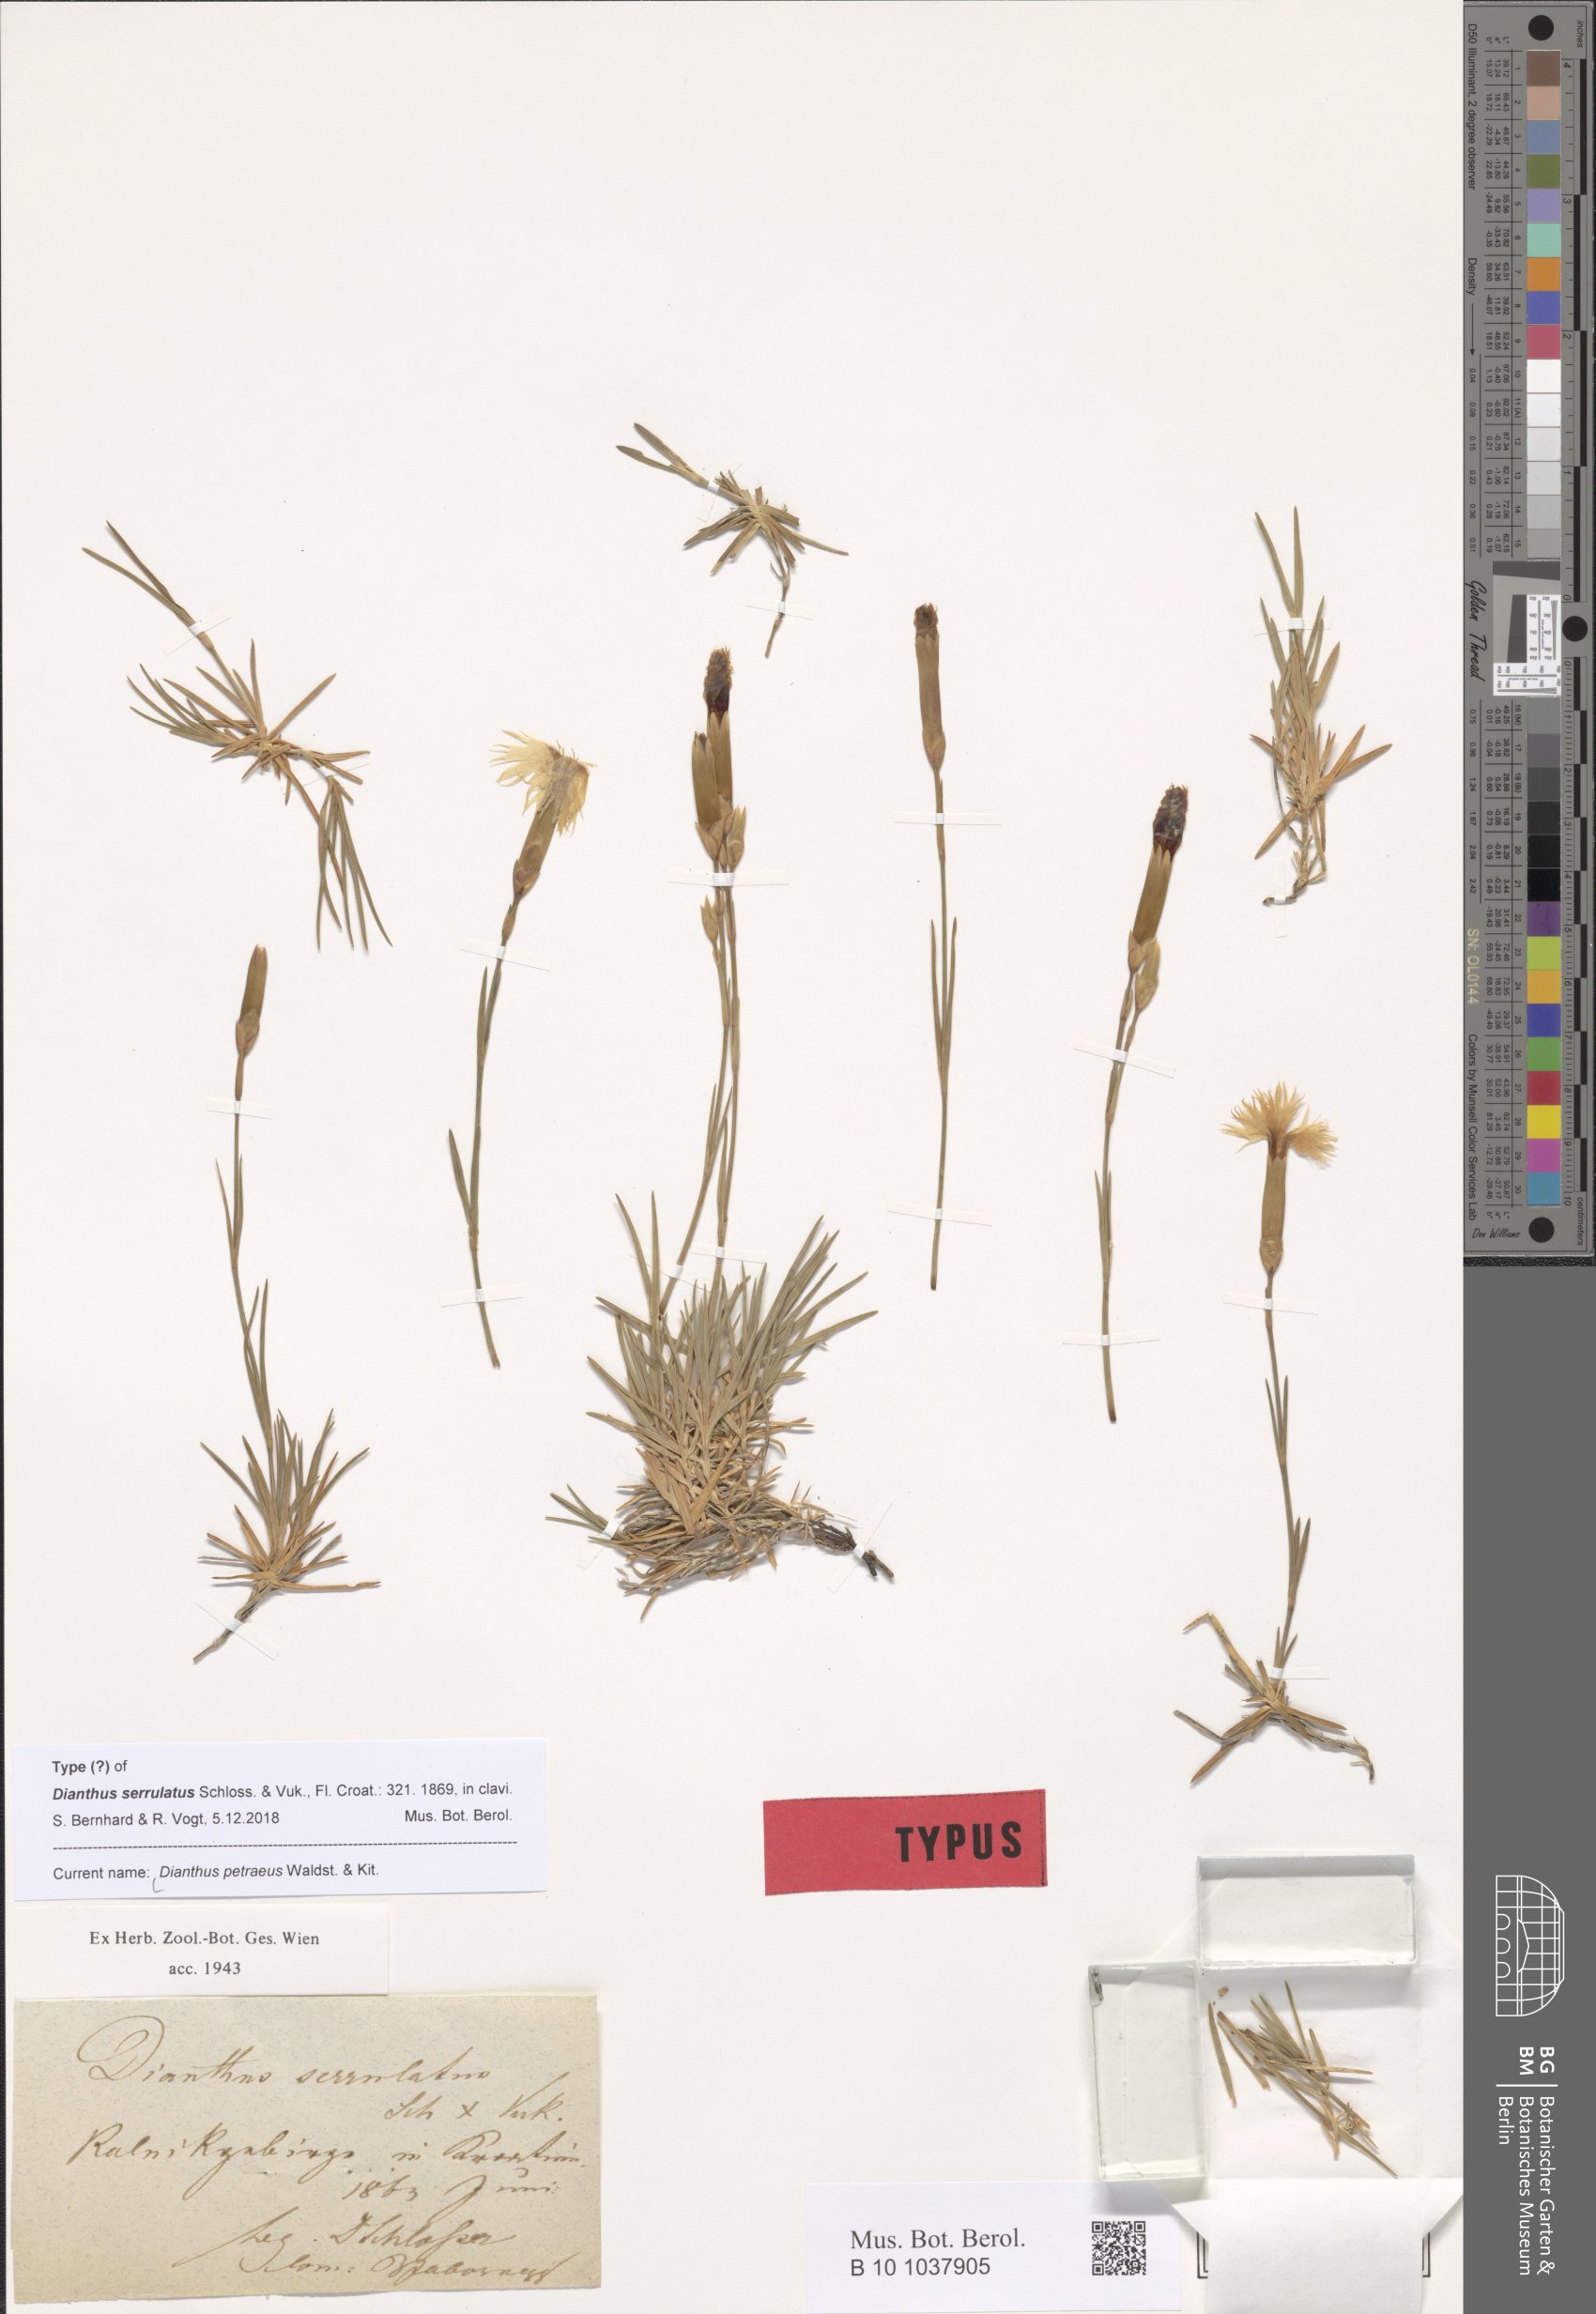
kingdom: Plantae
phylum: Tracheophyta
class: Magnoliopsida
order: Caryophyllales
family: Caryophyllaceae
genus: Dianthus
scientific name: Dianthus petraeus
